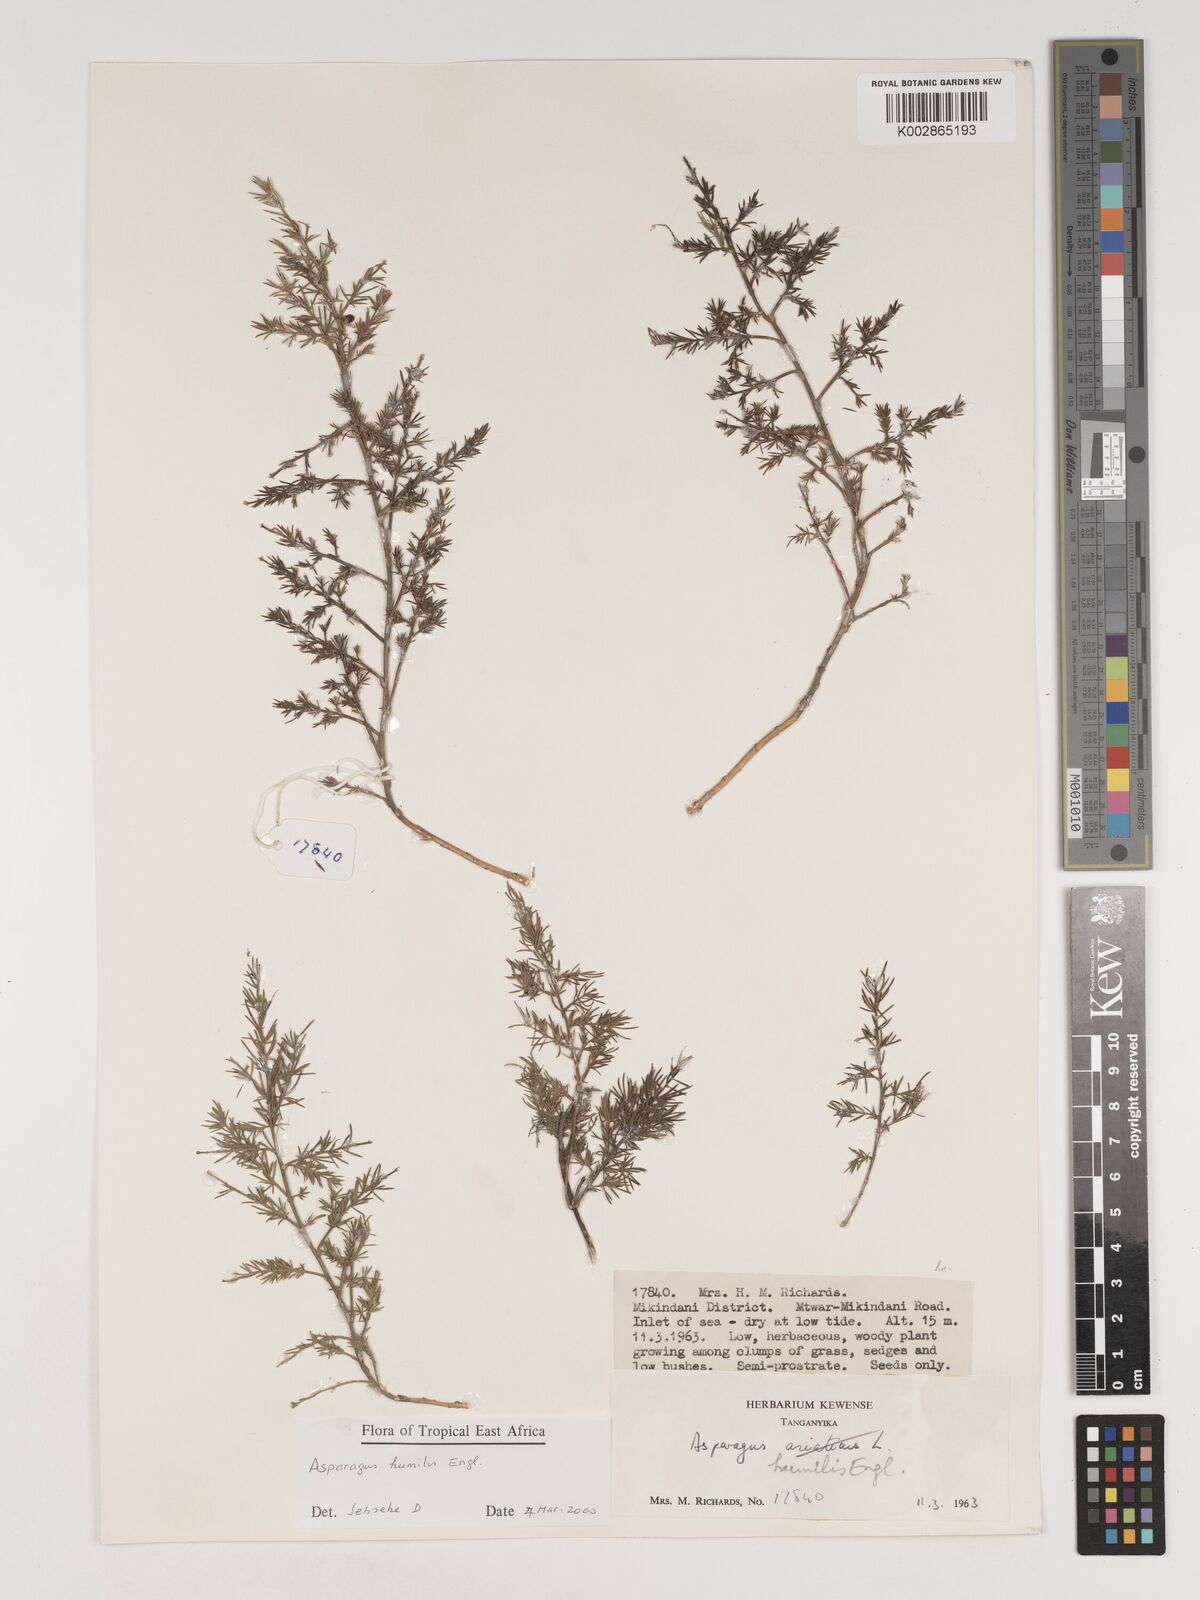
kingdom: Plantae
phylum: Tracheophyta
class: Liliopsida
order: Asparagales
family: Asparagaceae
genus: Asparagus
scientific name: Asparagus asparagoides
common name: African asparagus fern
